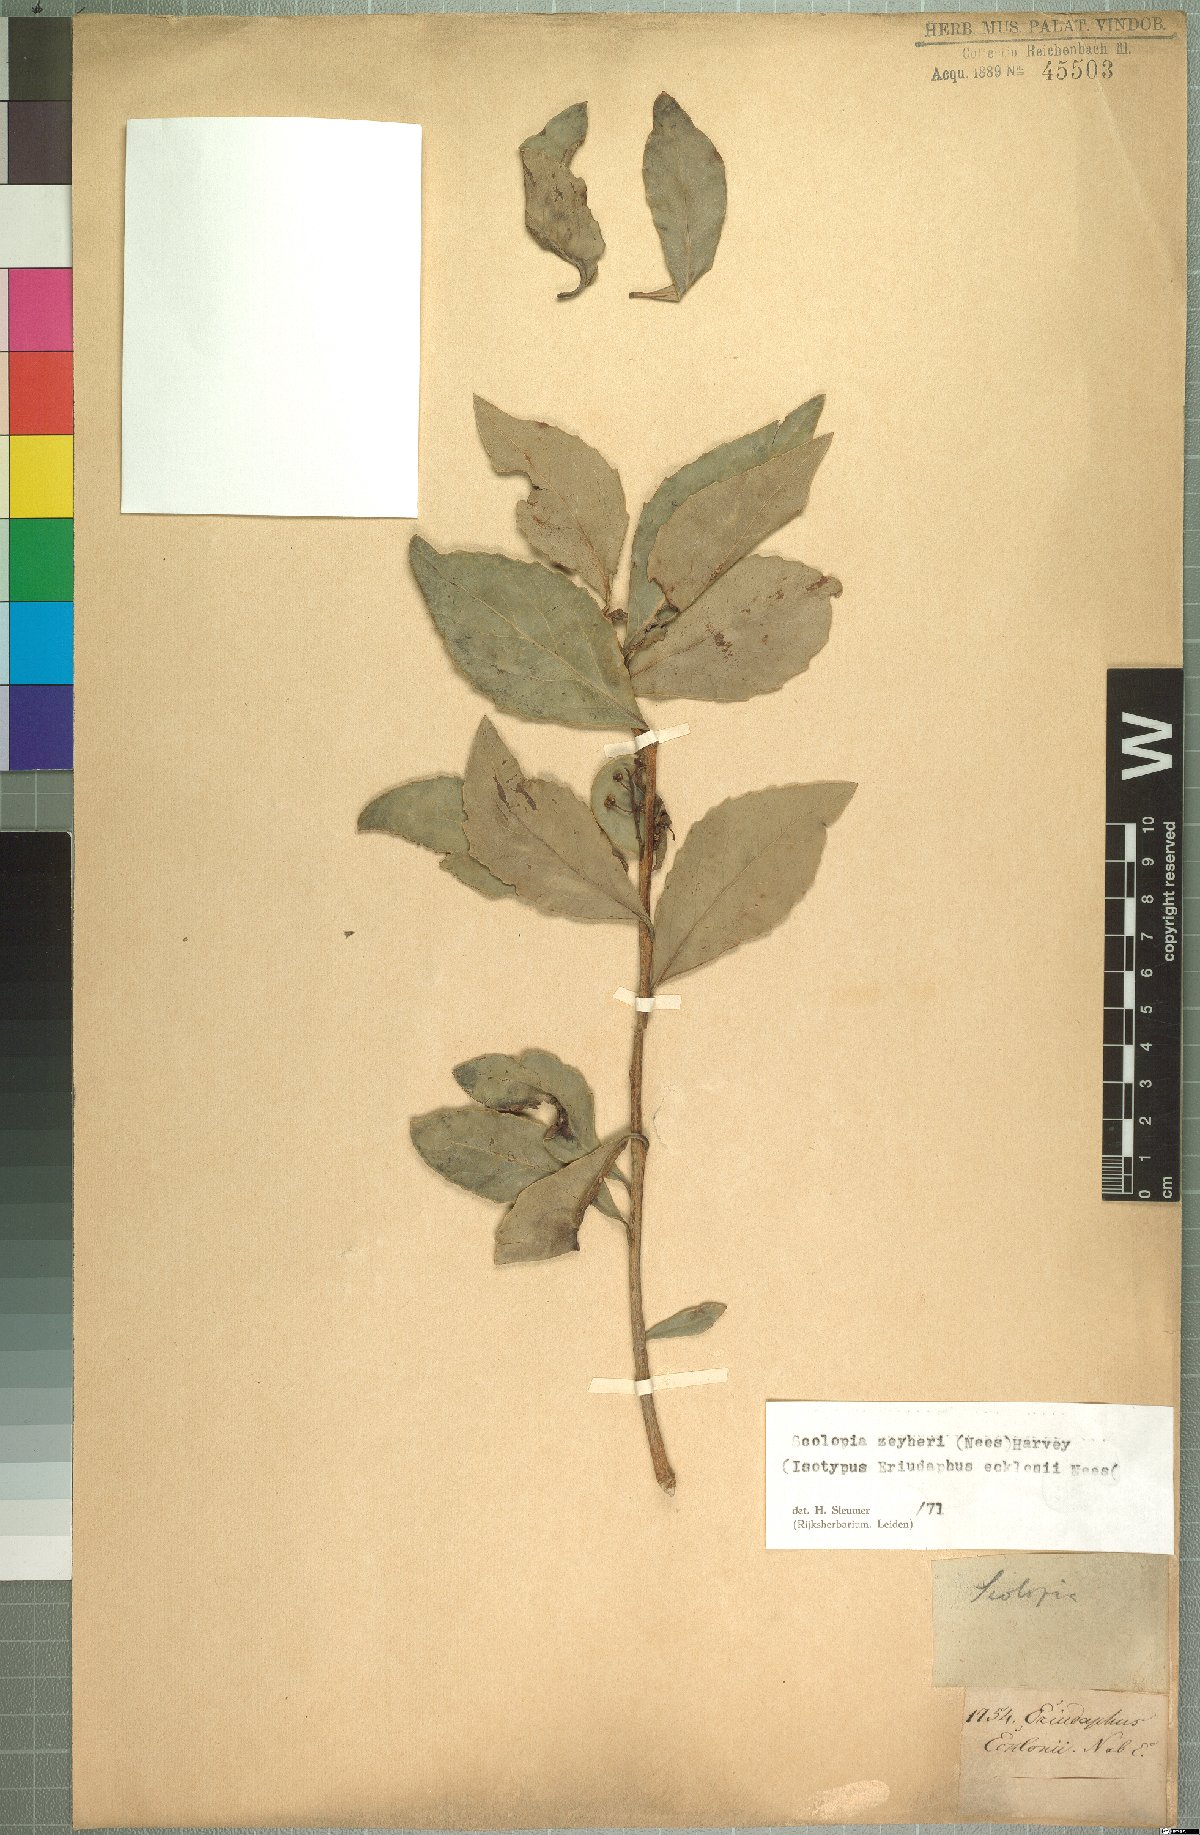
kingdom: Plantae
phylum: Tracheophyta
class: Magnoliopsida
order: Malpighiales
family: Salicaceae
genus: Scolopia
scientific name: Scolopia zeyheri
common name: Thorn pear
